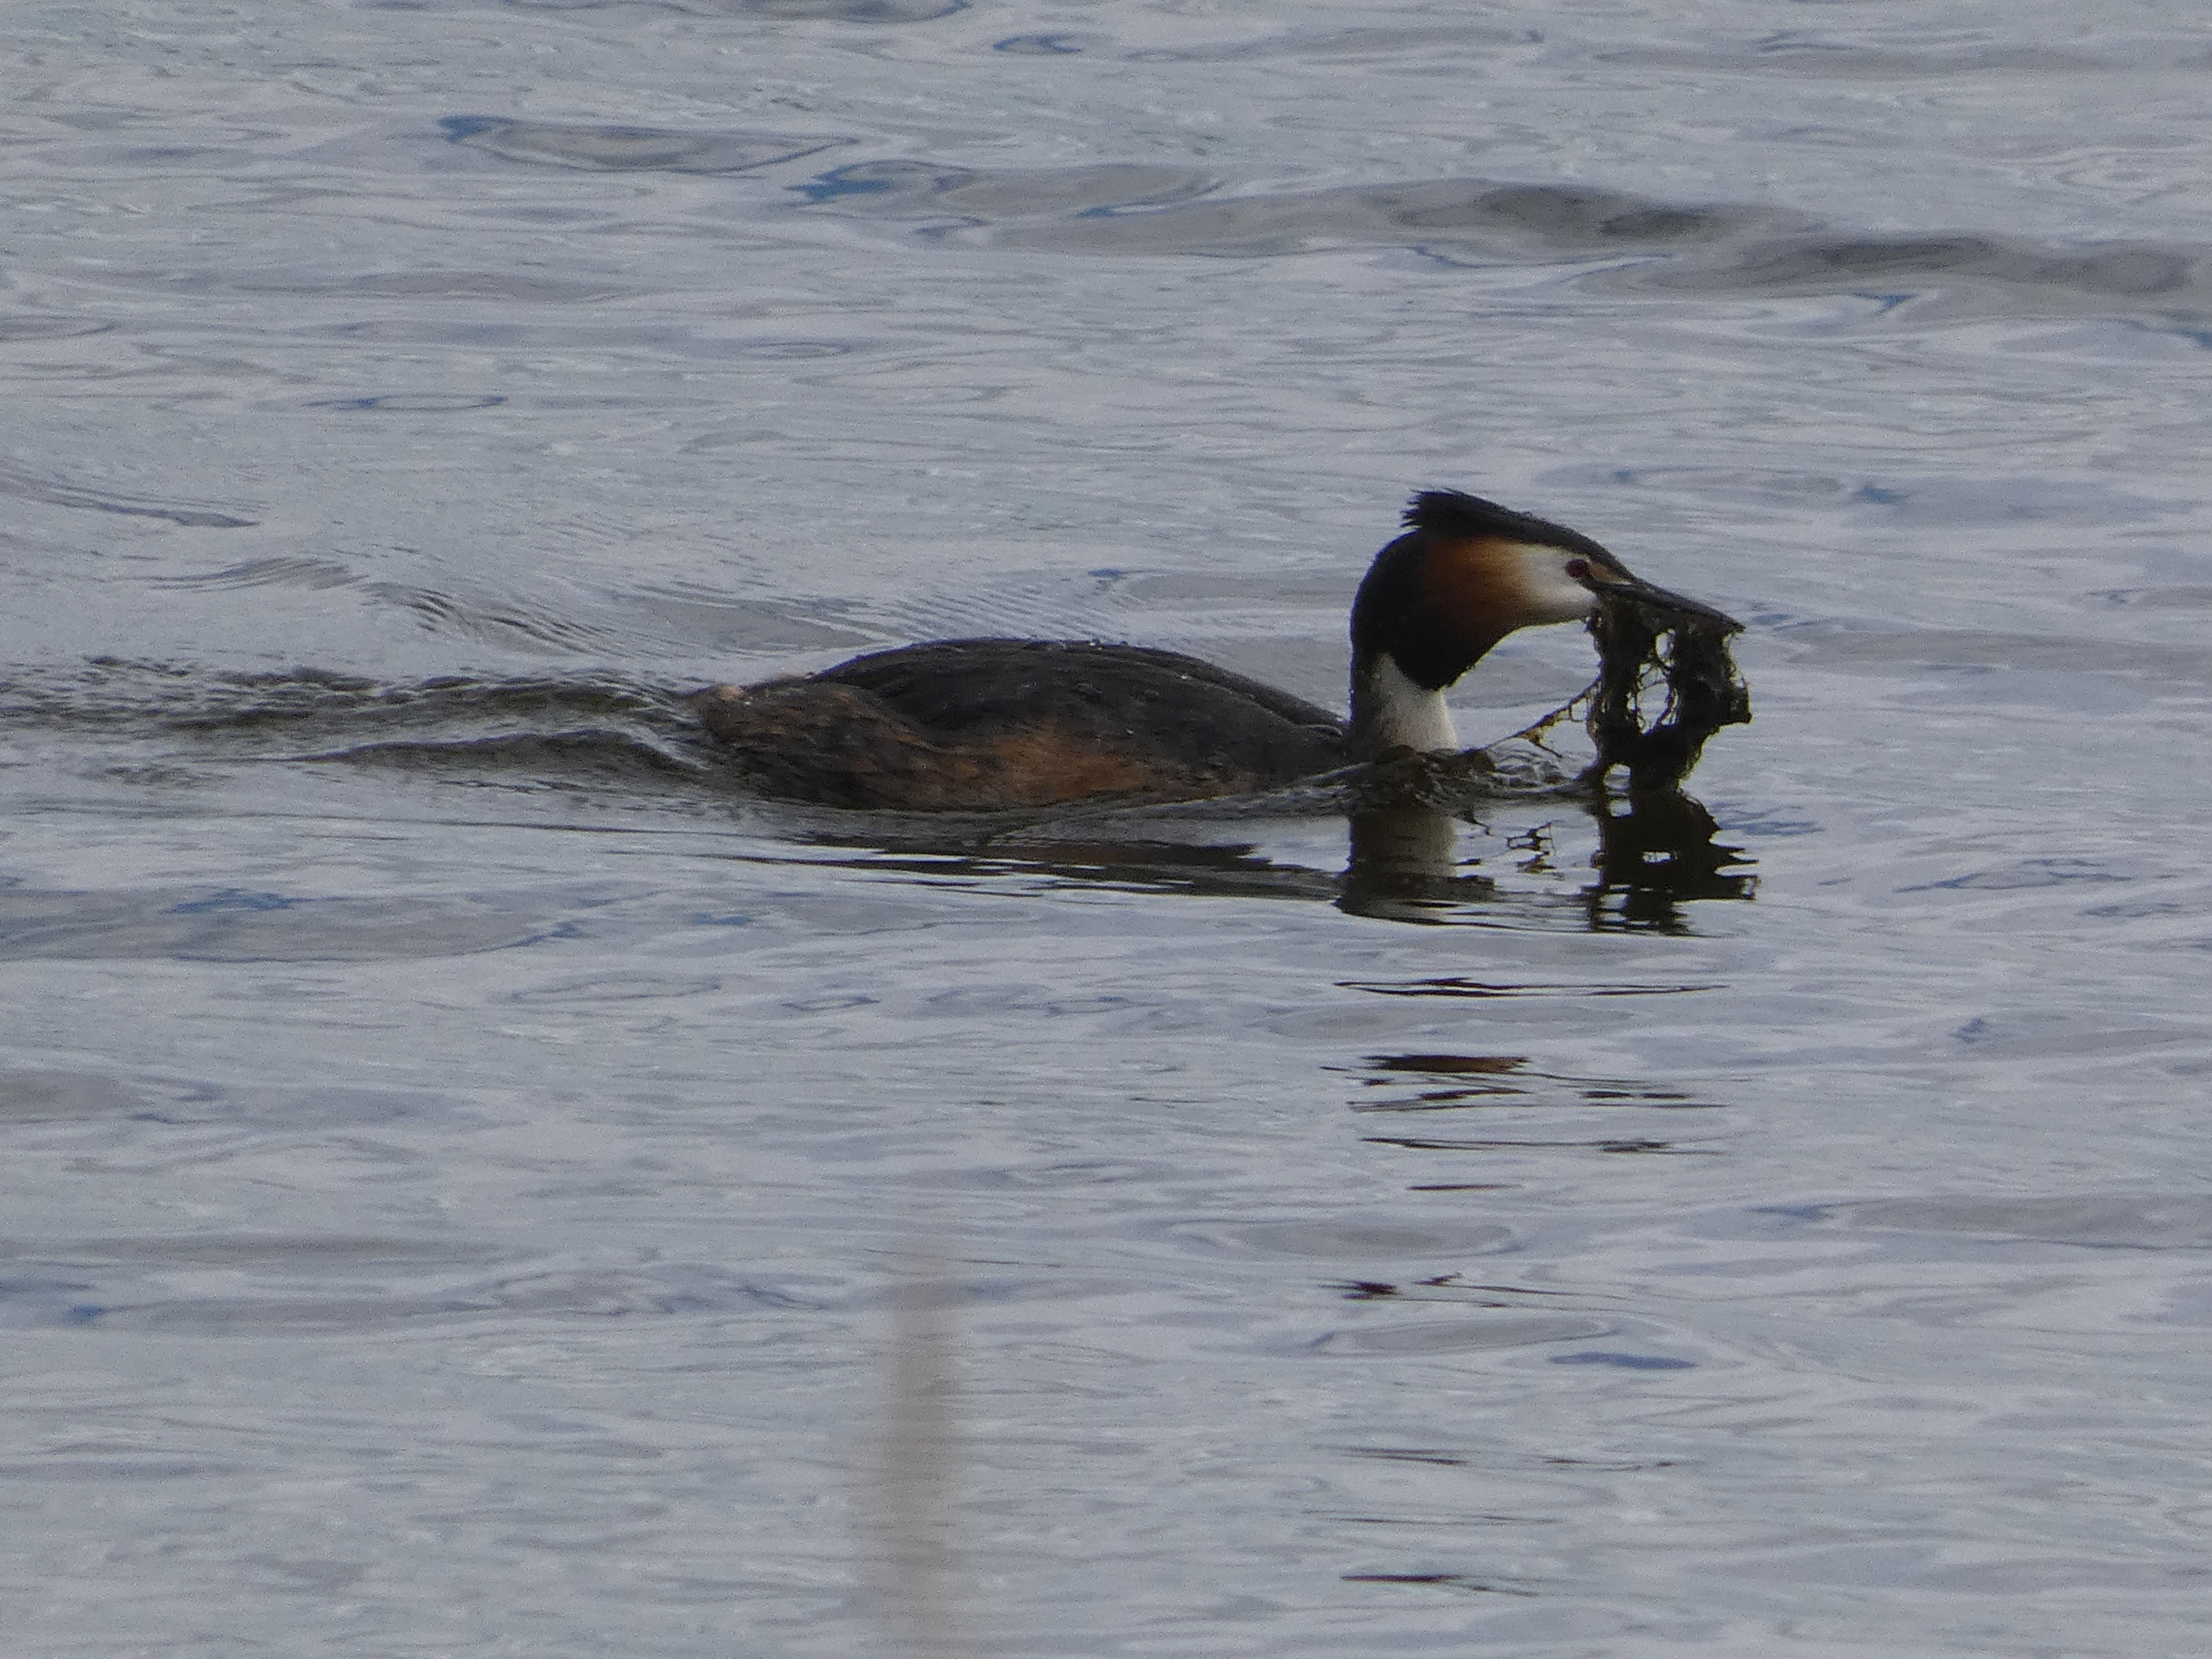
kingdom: Animalia
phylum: Chordata
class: Aves
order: Podicipediformes
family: Podicipedidae
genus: Podiceps
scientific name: Podiceps cristatus
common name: Toppet lappedykker
